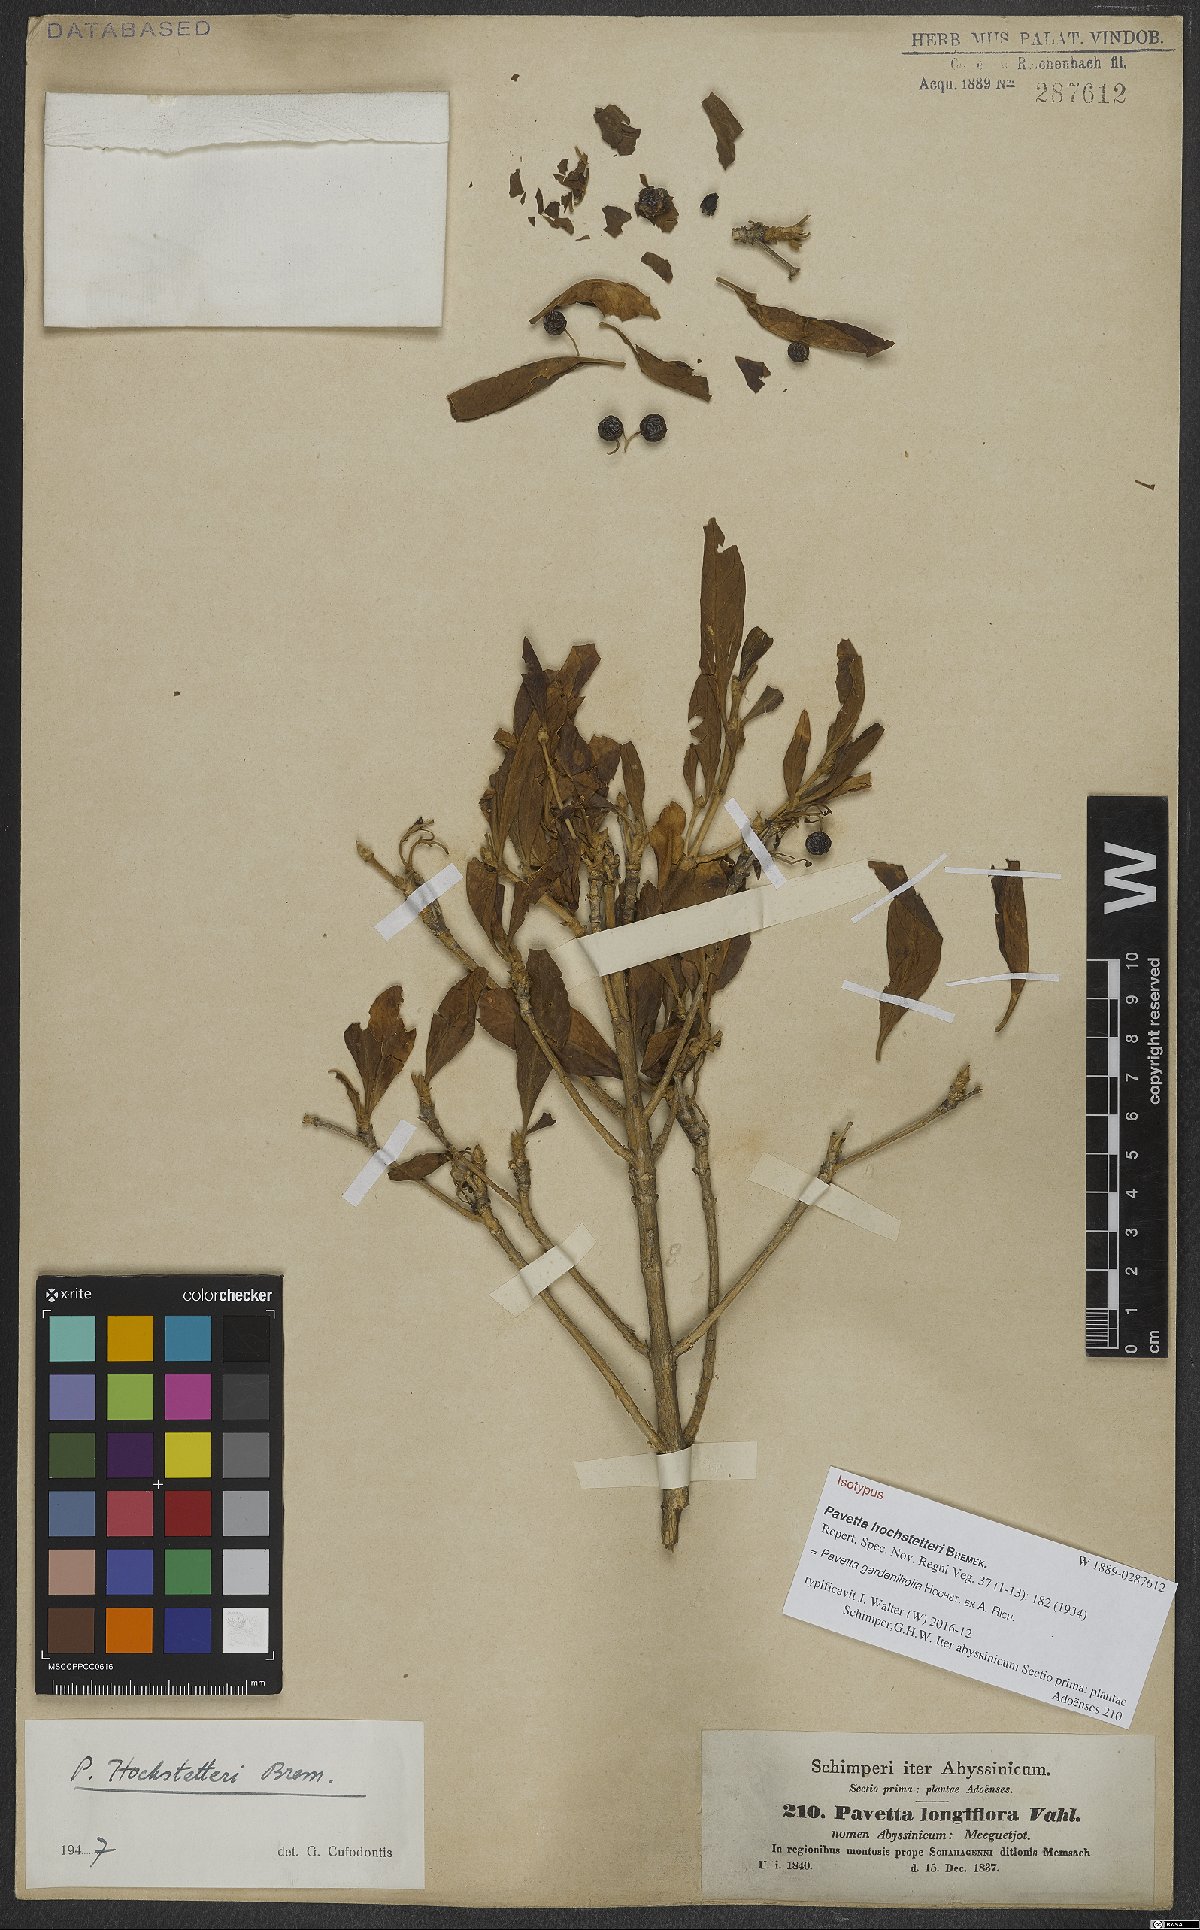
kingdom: Plantae
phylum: Tracheophyta
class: Magnoliopsida
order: Gentianales
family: Rubiaceae
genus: Pavetta
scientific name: Pavetta gardeniifolia
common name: Common brides-bush
